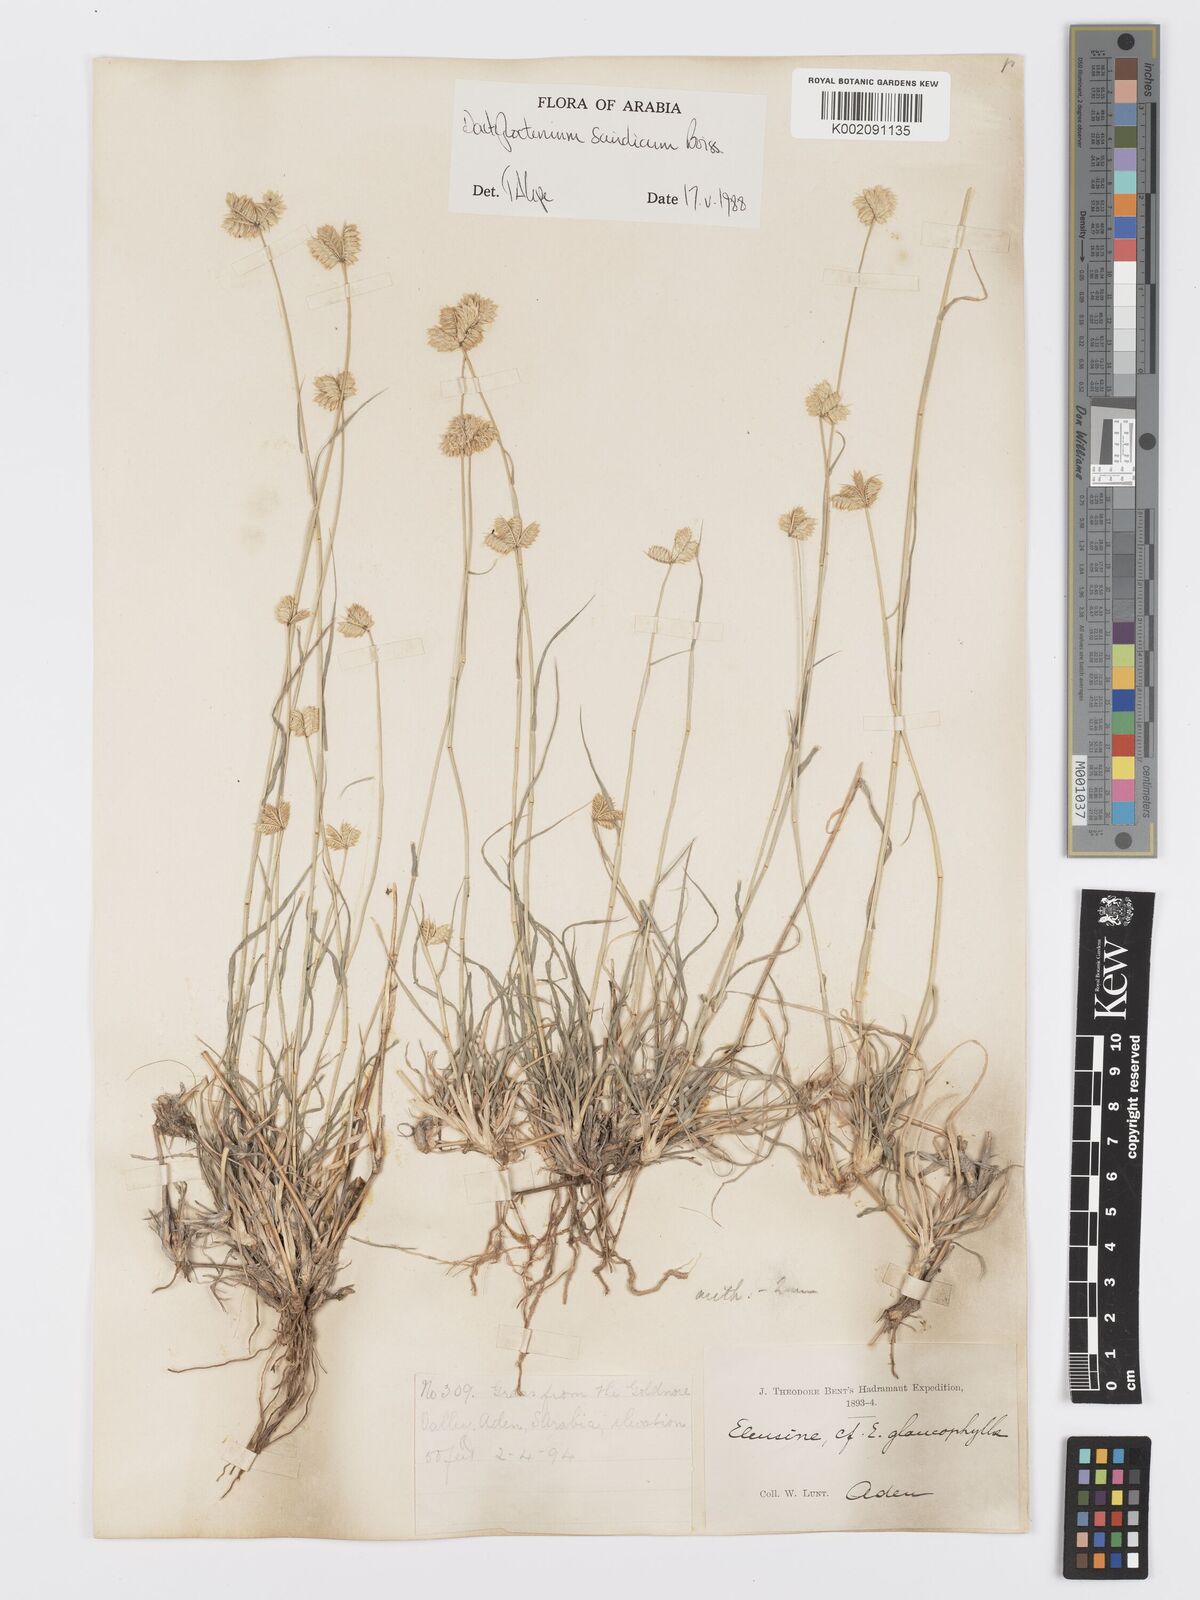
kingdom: Plantae
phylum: Tracheophyta
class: Liliopsida
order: Poales
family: Poaceae
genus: Dactyloctenium
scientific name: Dactyloctenium scindicum
